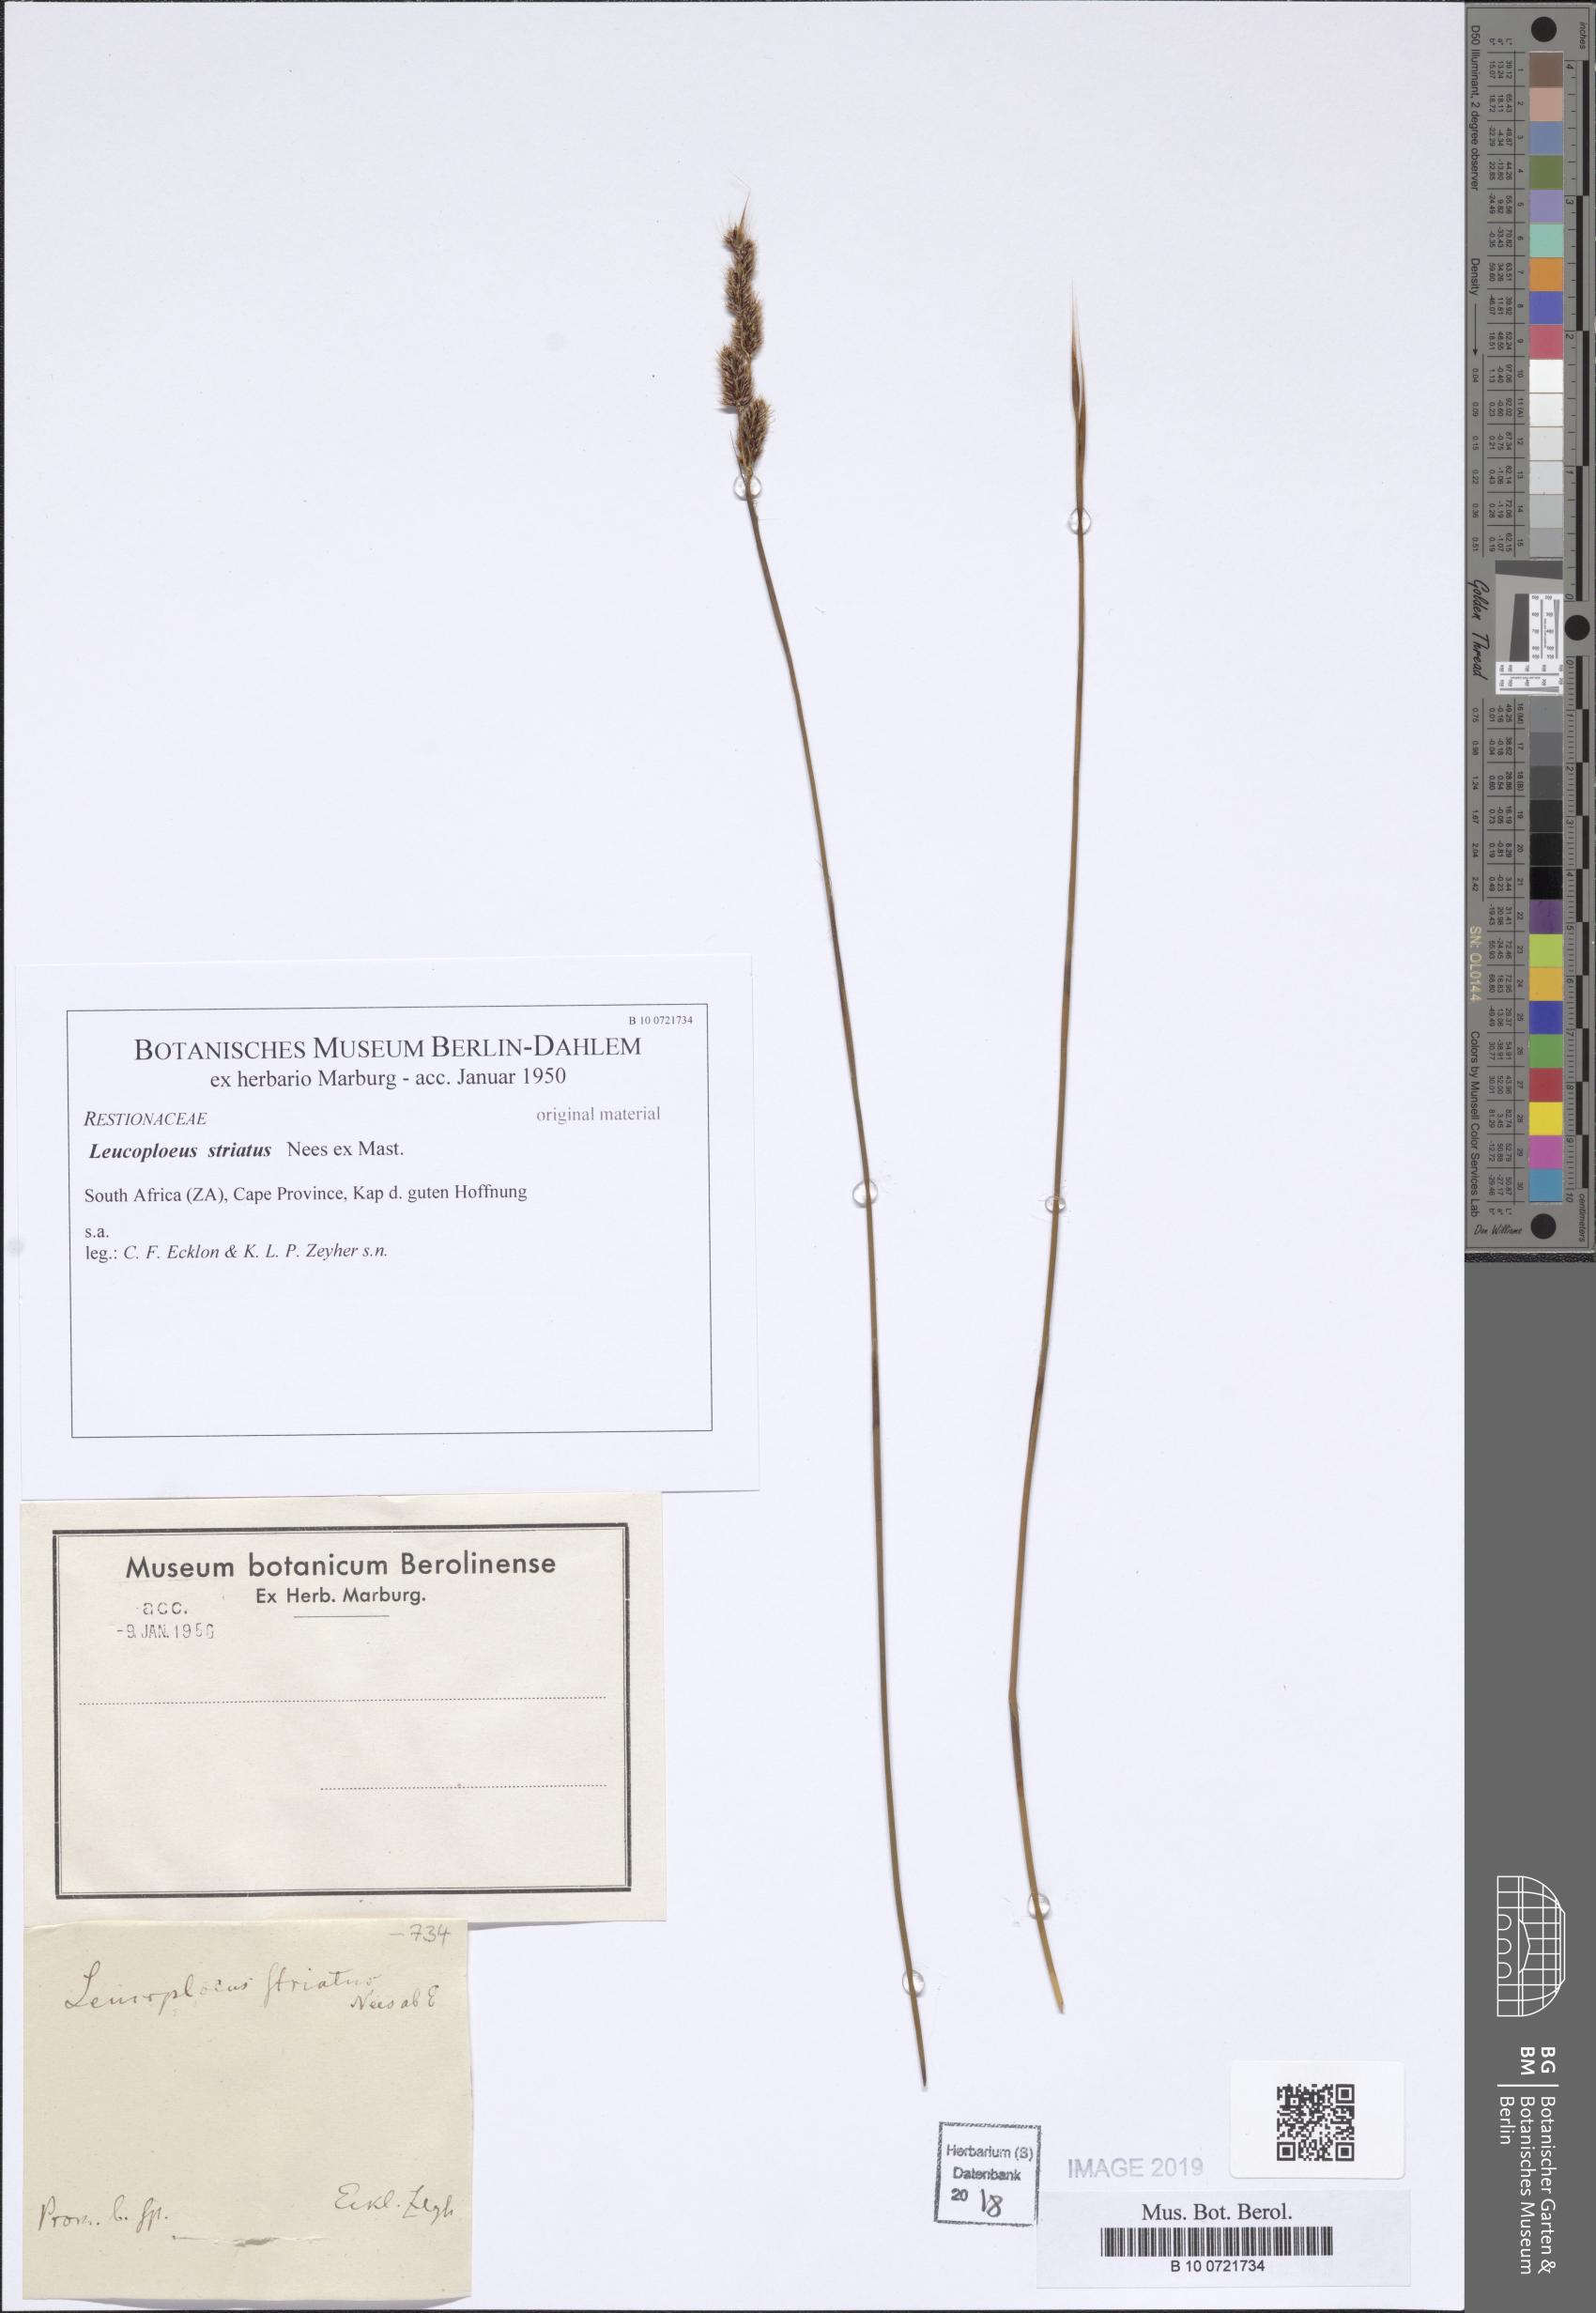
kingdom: Plantae
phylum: Tracheophyta
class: Liliopsida
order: Poales
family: Restionaceae
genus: Hypodiscus
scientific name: Hypodiscus neesii
